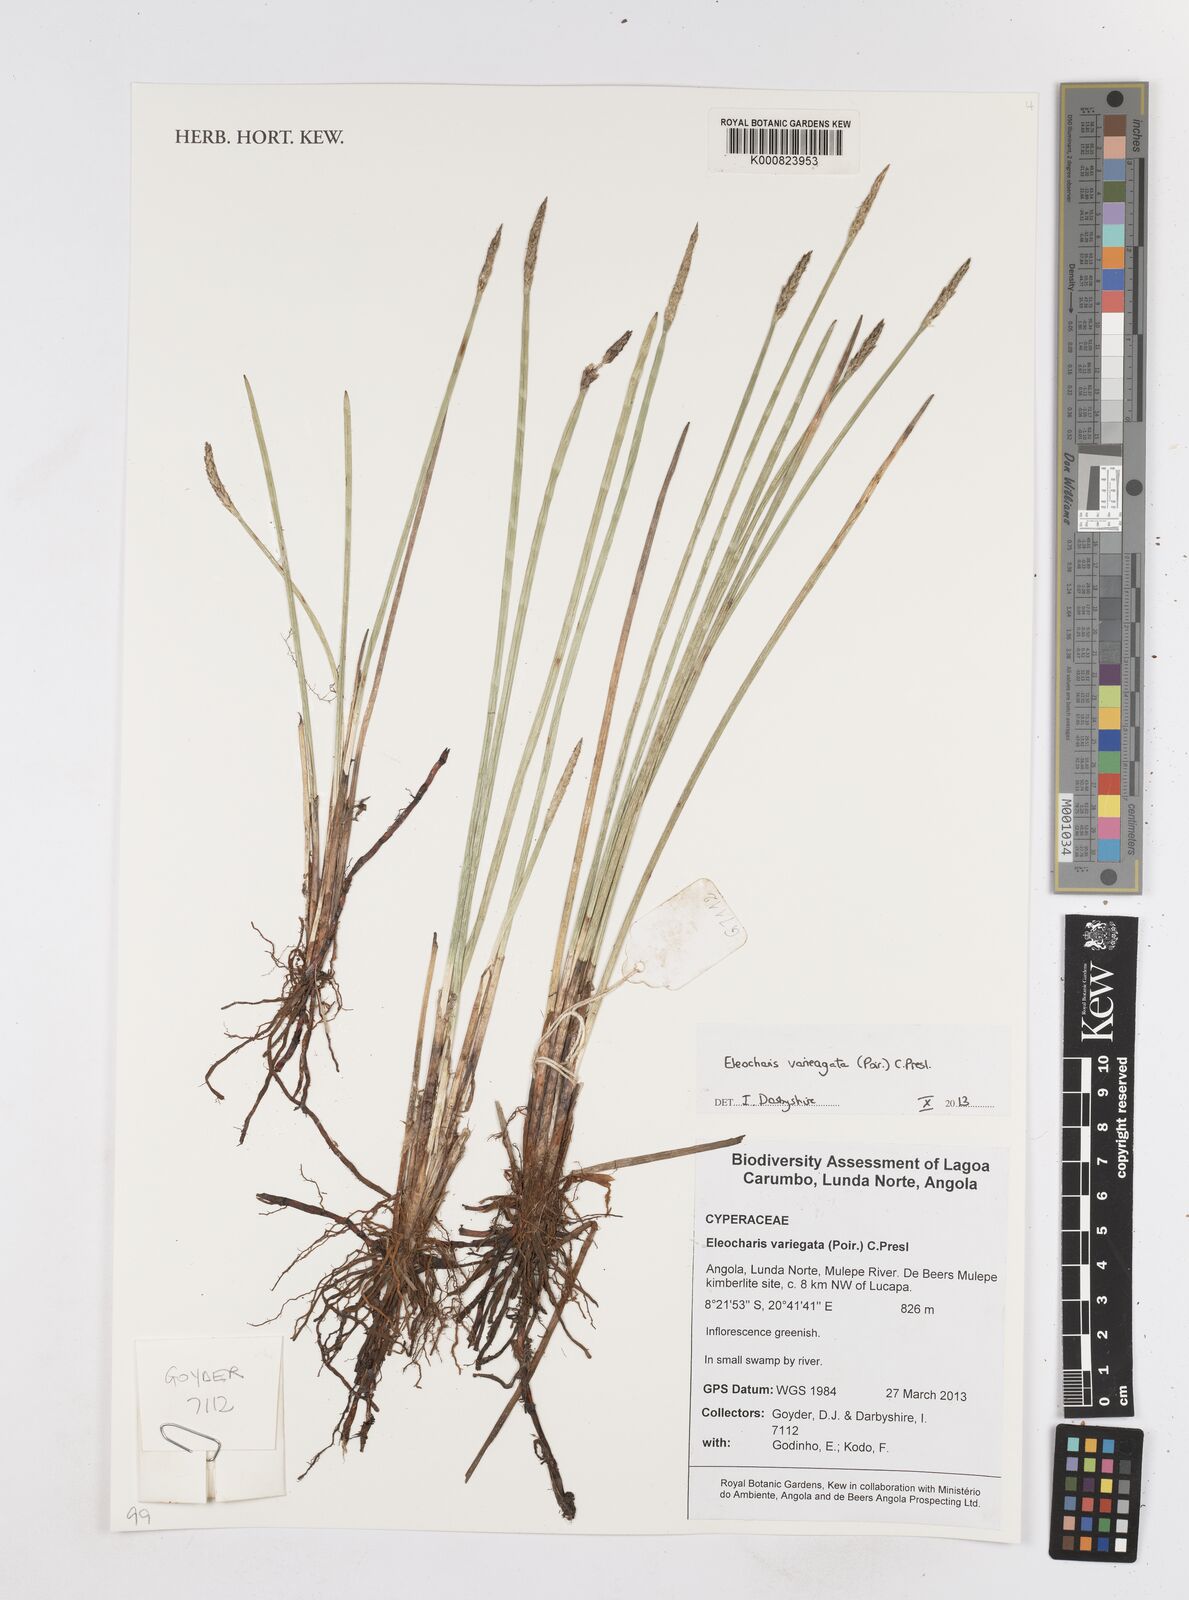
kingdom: Plantae
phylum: Tracheophyta
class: Liliopsida
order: Poales
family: Cyperaceae
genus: Eleocharis
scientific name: Eleocharis variegata
